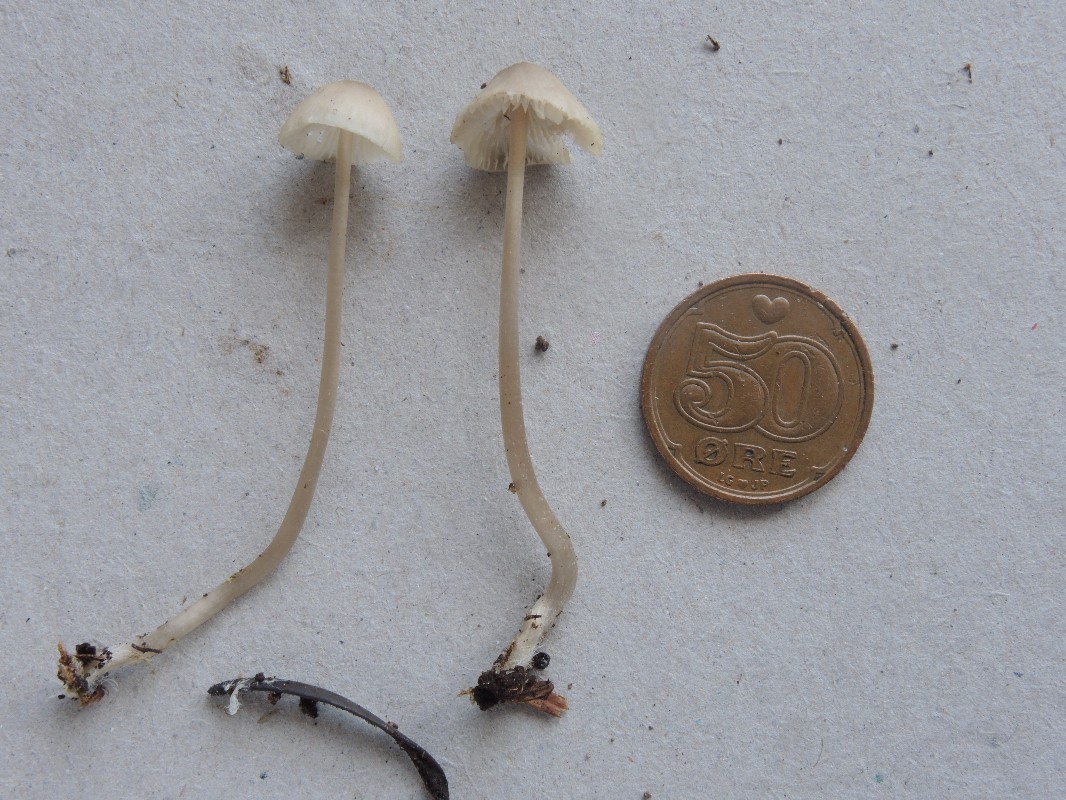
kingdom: Fungi
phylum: Basidiomycota
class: Agaricomycetes
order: Agaricales
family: Mycenaceae
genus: Mycena
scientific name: Mycena leptocephala
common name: klor-huesvamp
